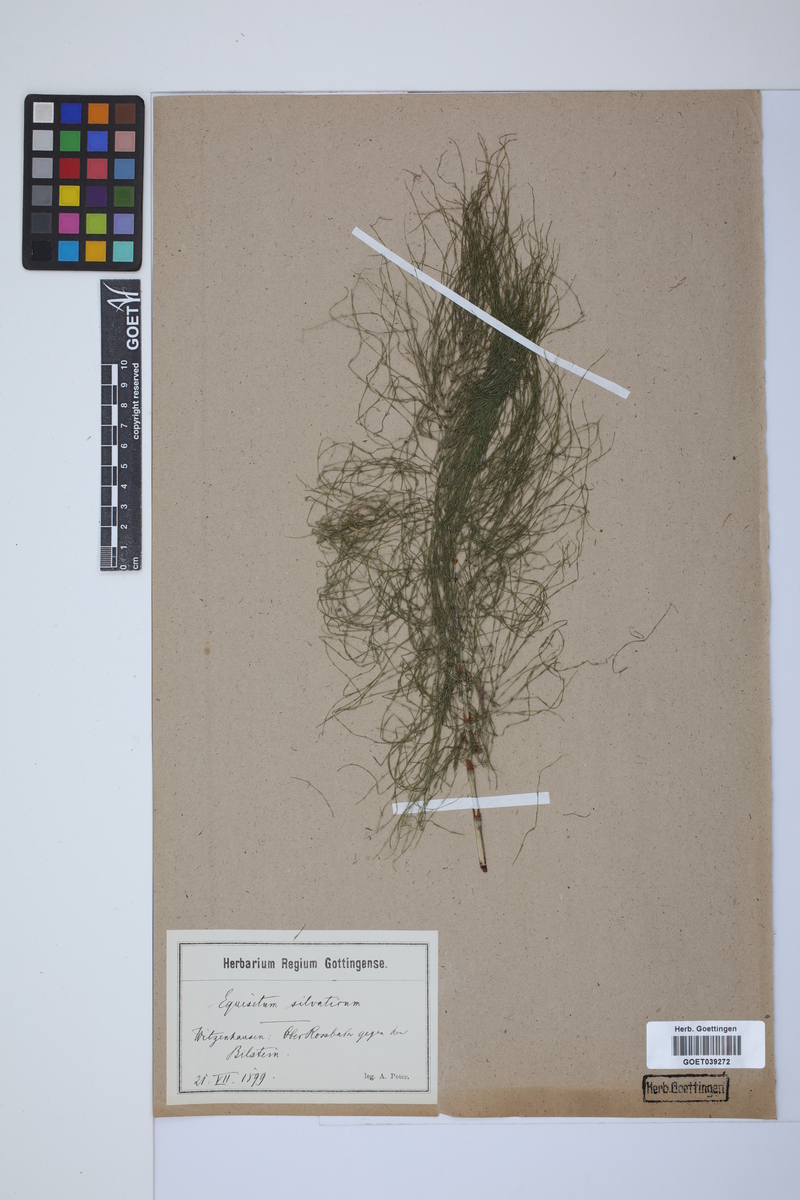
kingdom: Plantae
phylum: Tracheophyta
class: Polypodiopsida
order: Equisetales
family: Equisetaceae
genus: Equisetum
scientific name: Equisetum sylvaticum
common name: Wood horsetail
